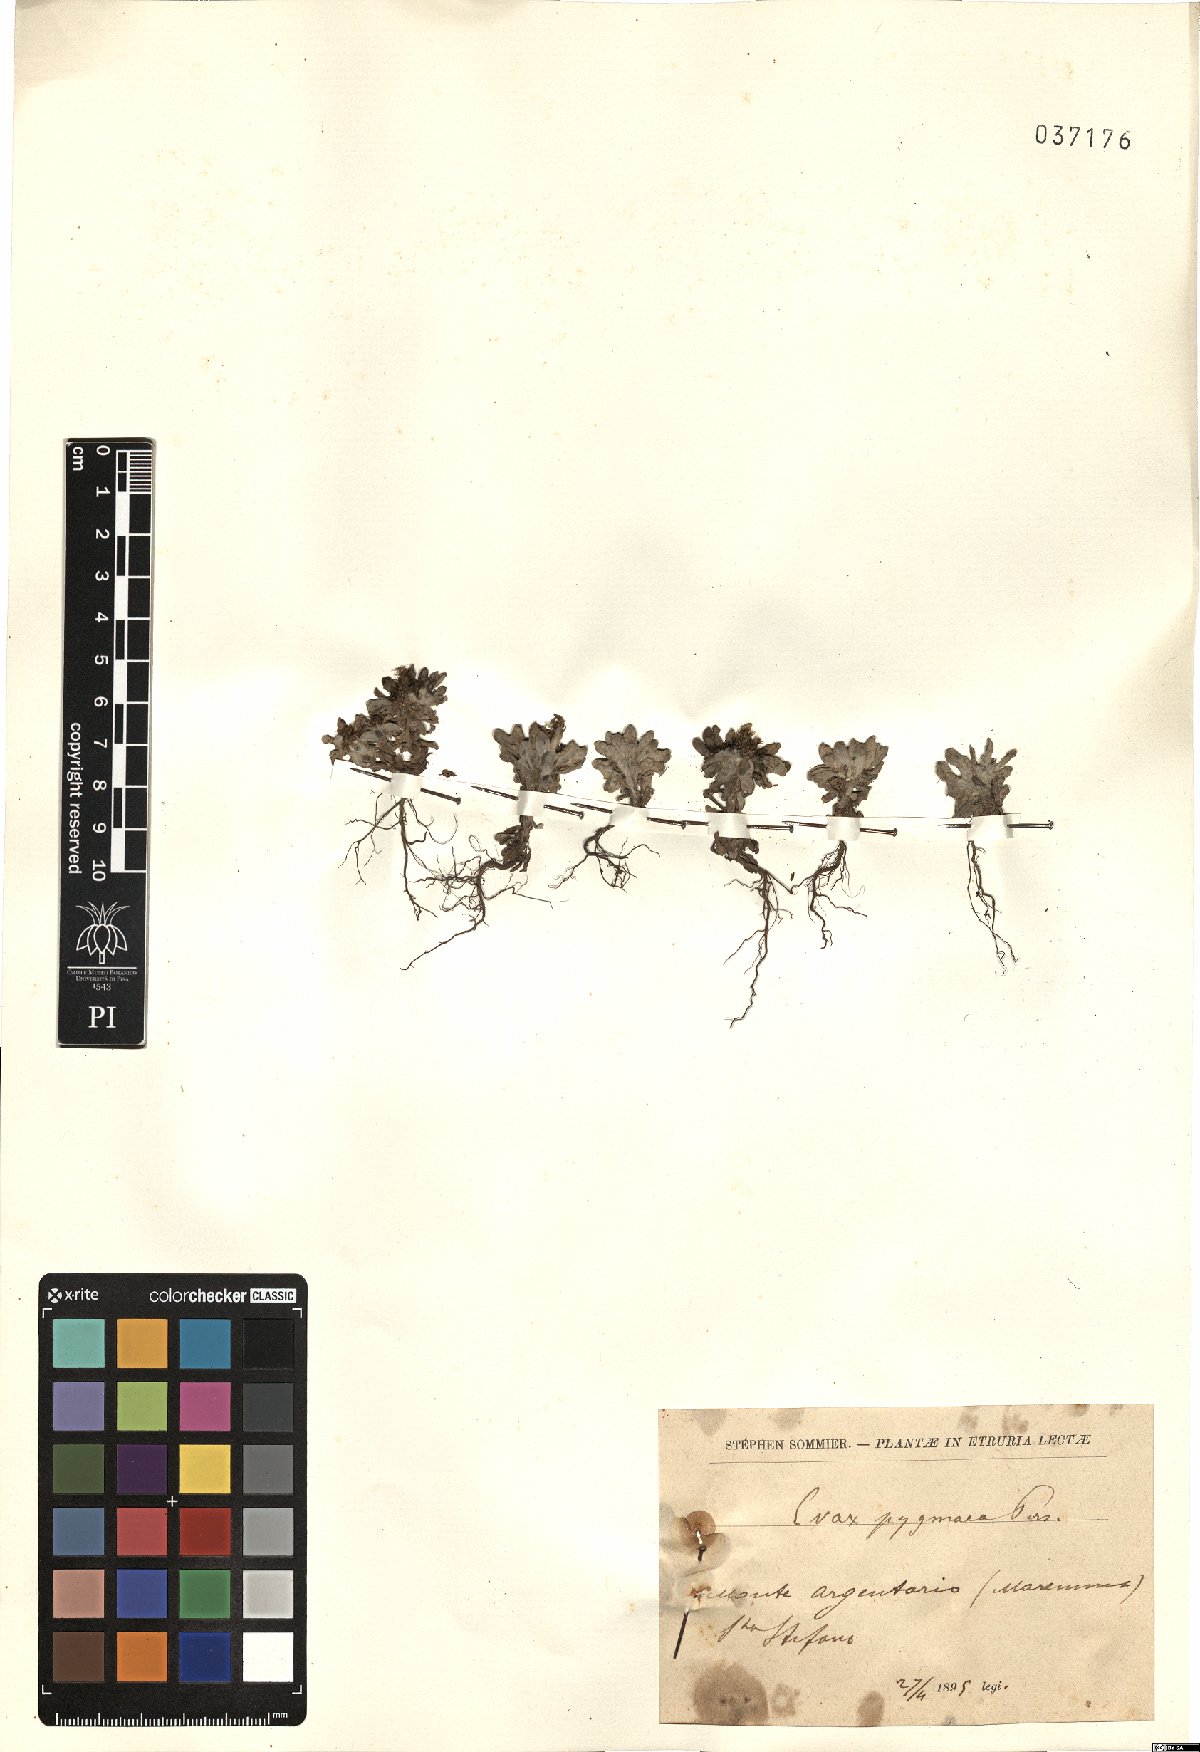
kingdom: Plantae
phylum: Tracheophyta
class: Magnoliopsida
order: Asterales
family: Asteraceae
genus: Filago
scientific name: Filago pygmaea
